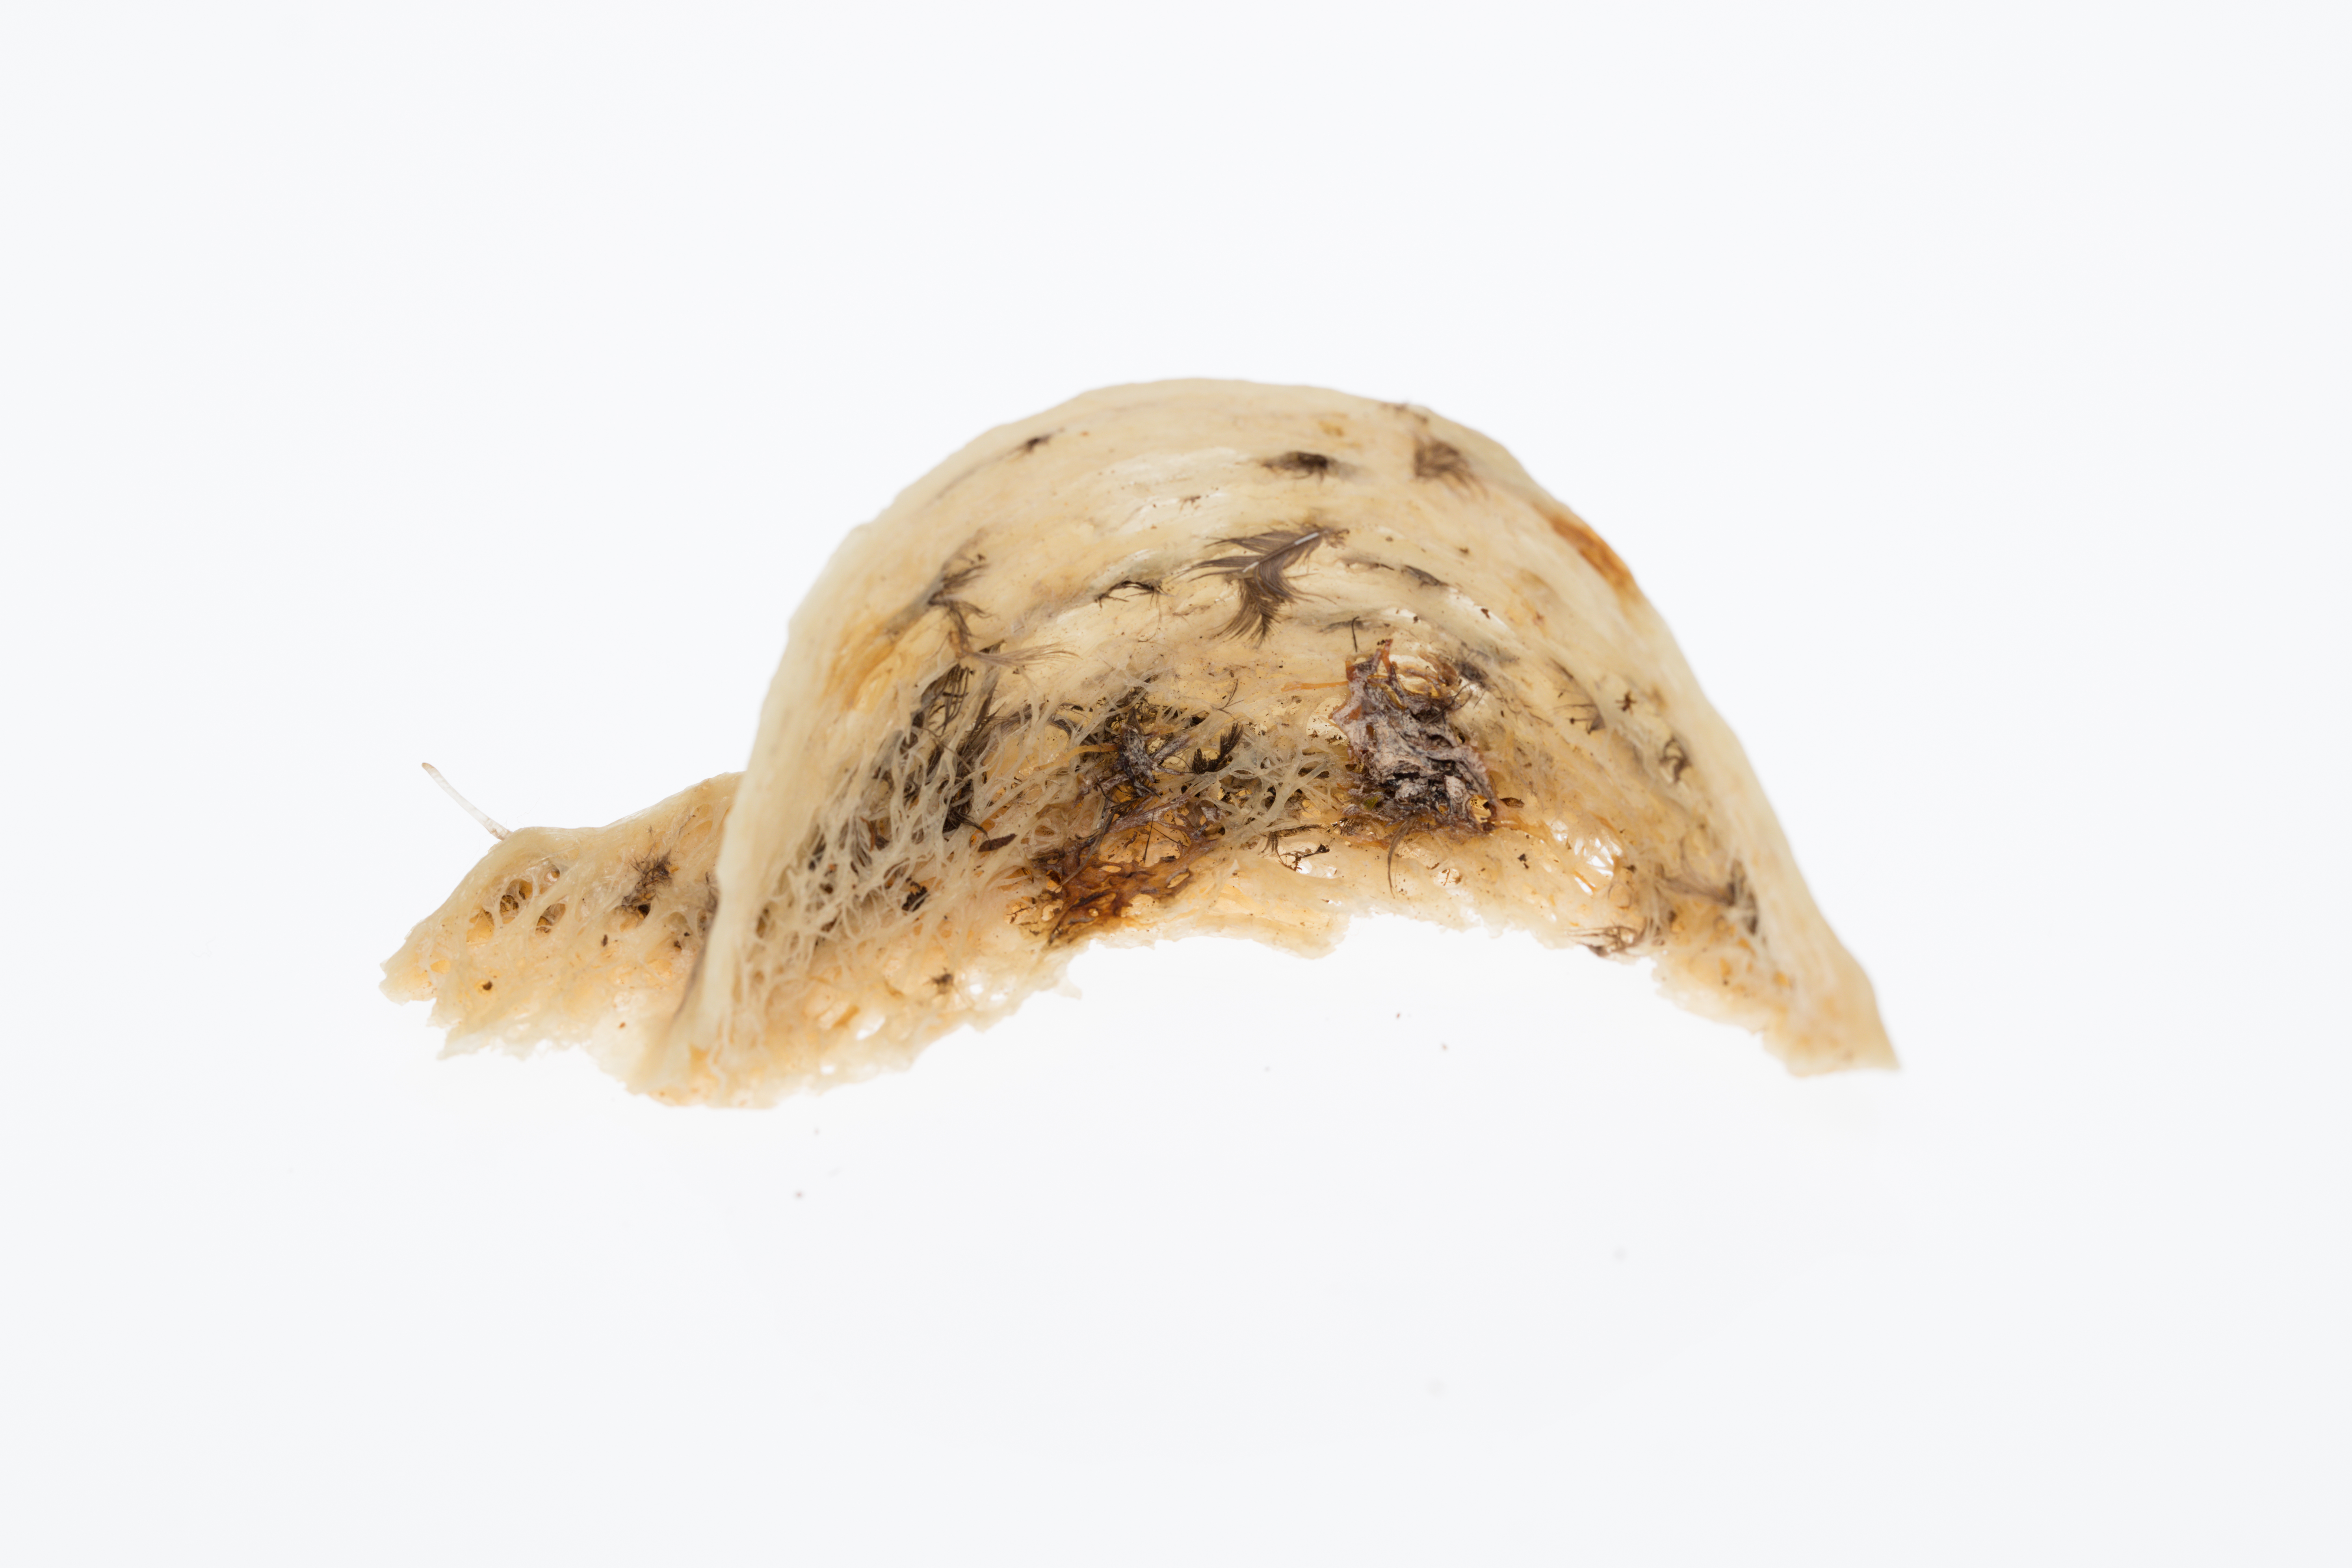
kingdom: Animalia
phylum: Chordata
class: Aves
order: Apodiformes
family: Apodidae
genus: Collocalia
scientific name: Collocalia
